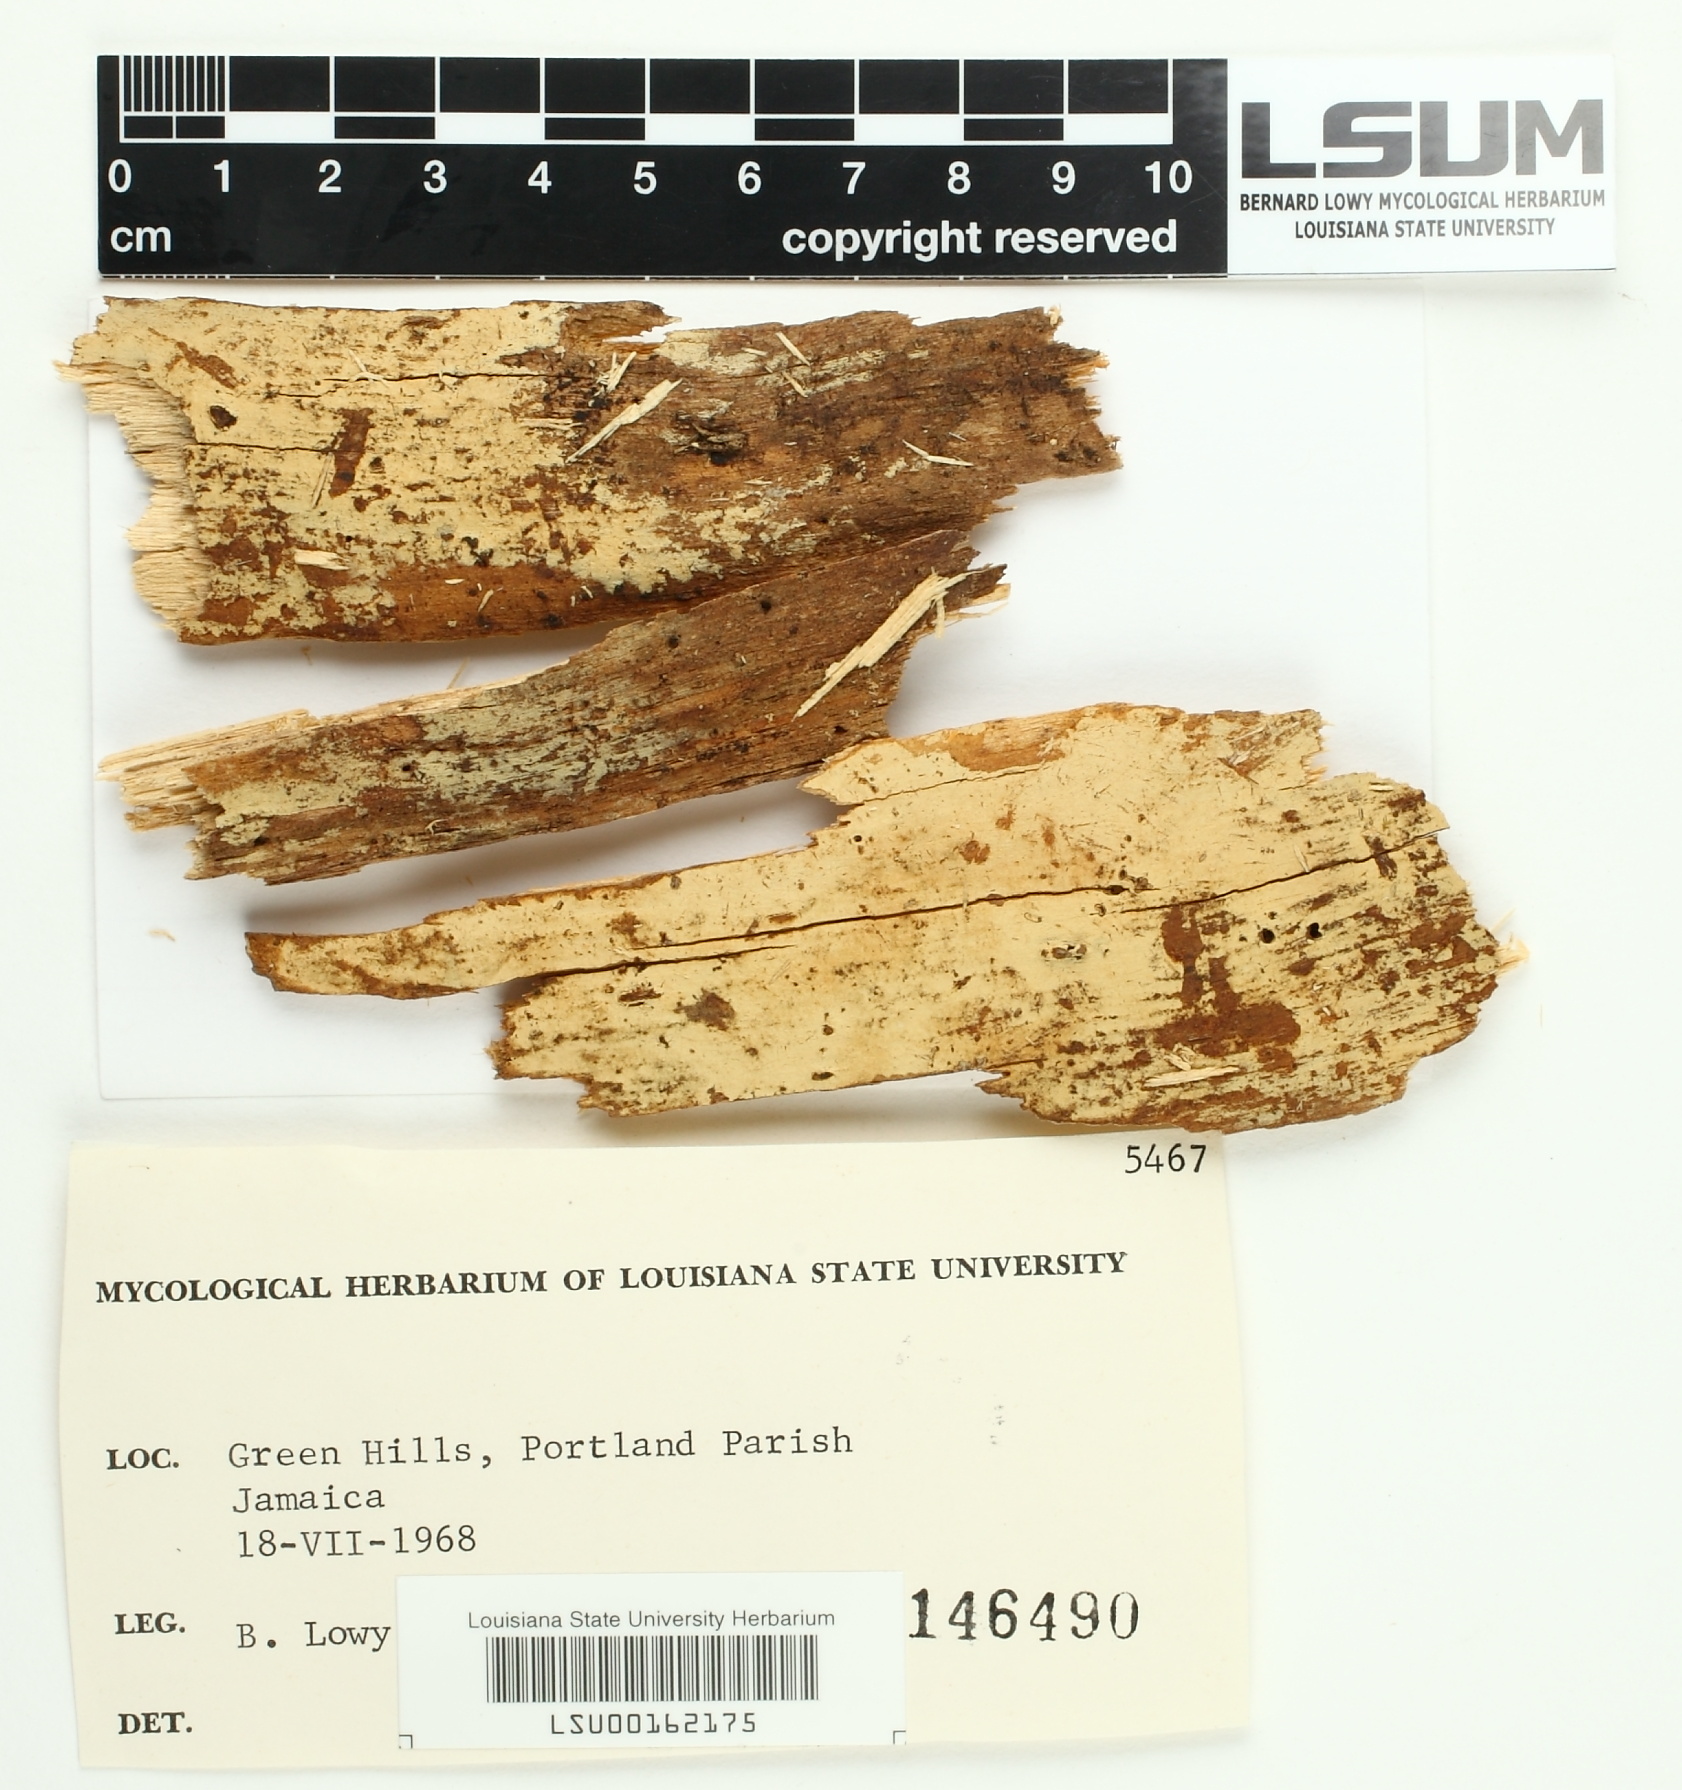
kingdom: Fungi
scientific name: Fungi
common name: Fungi
